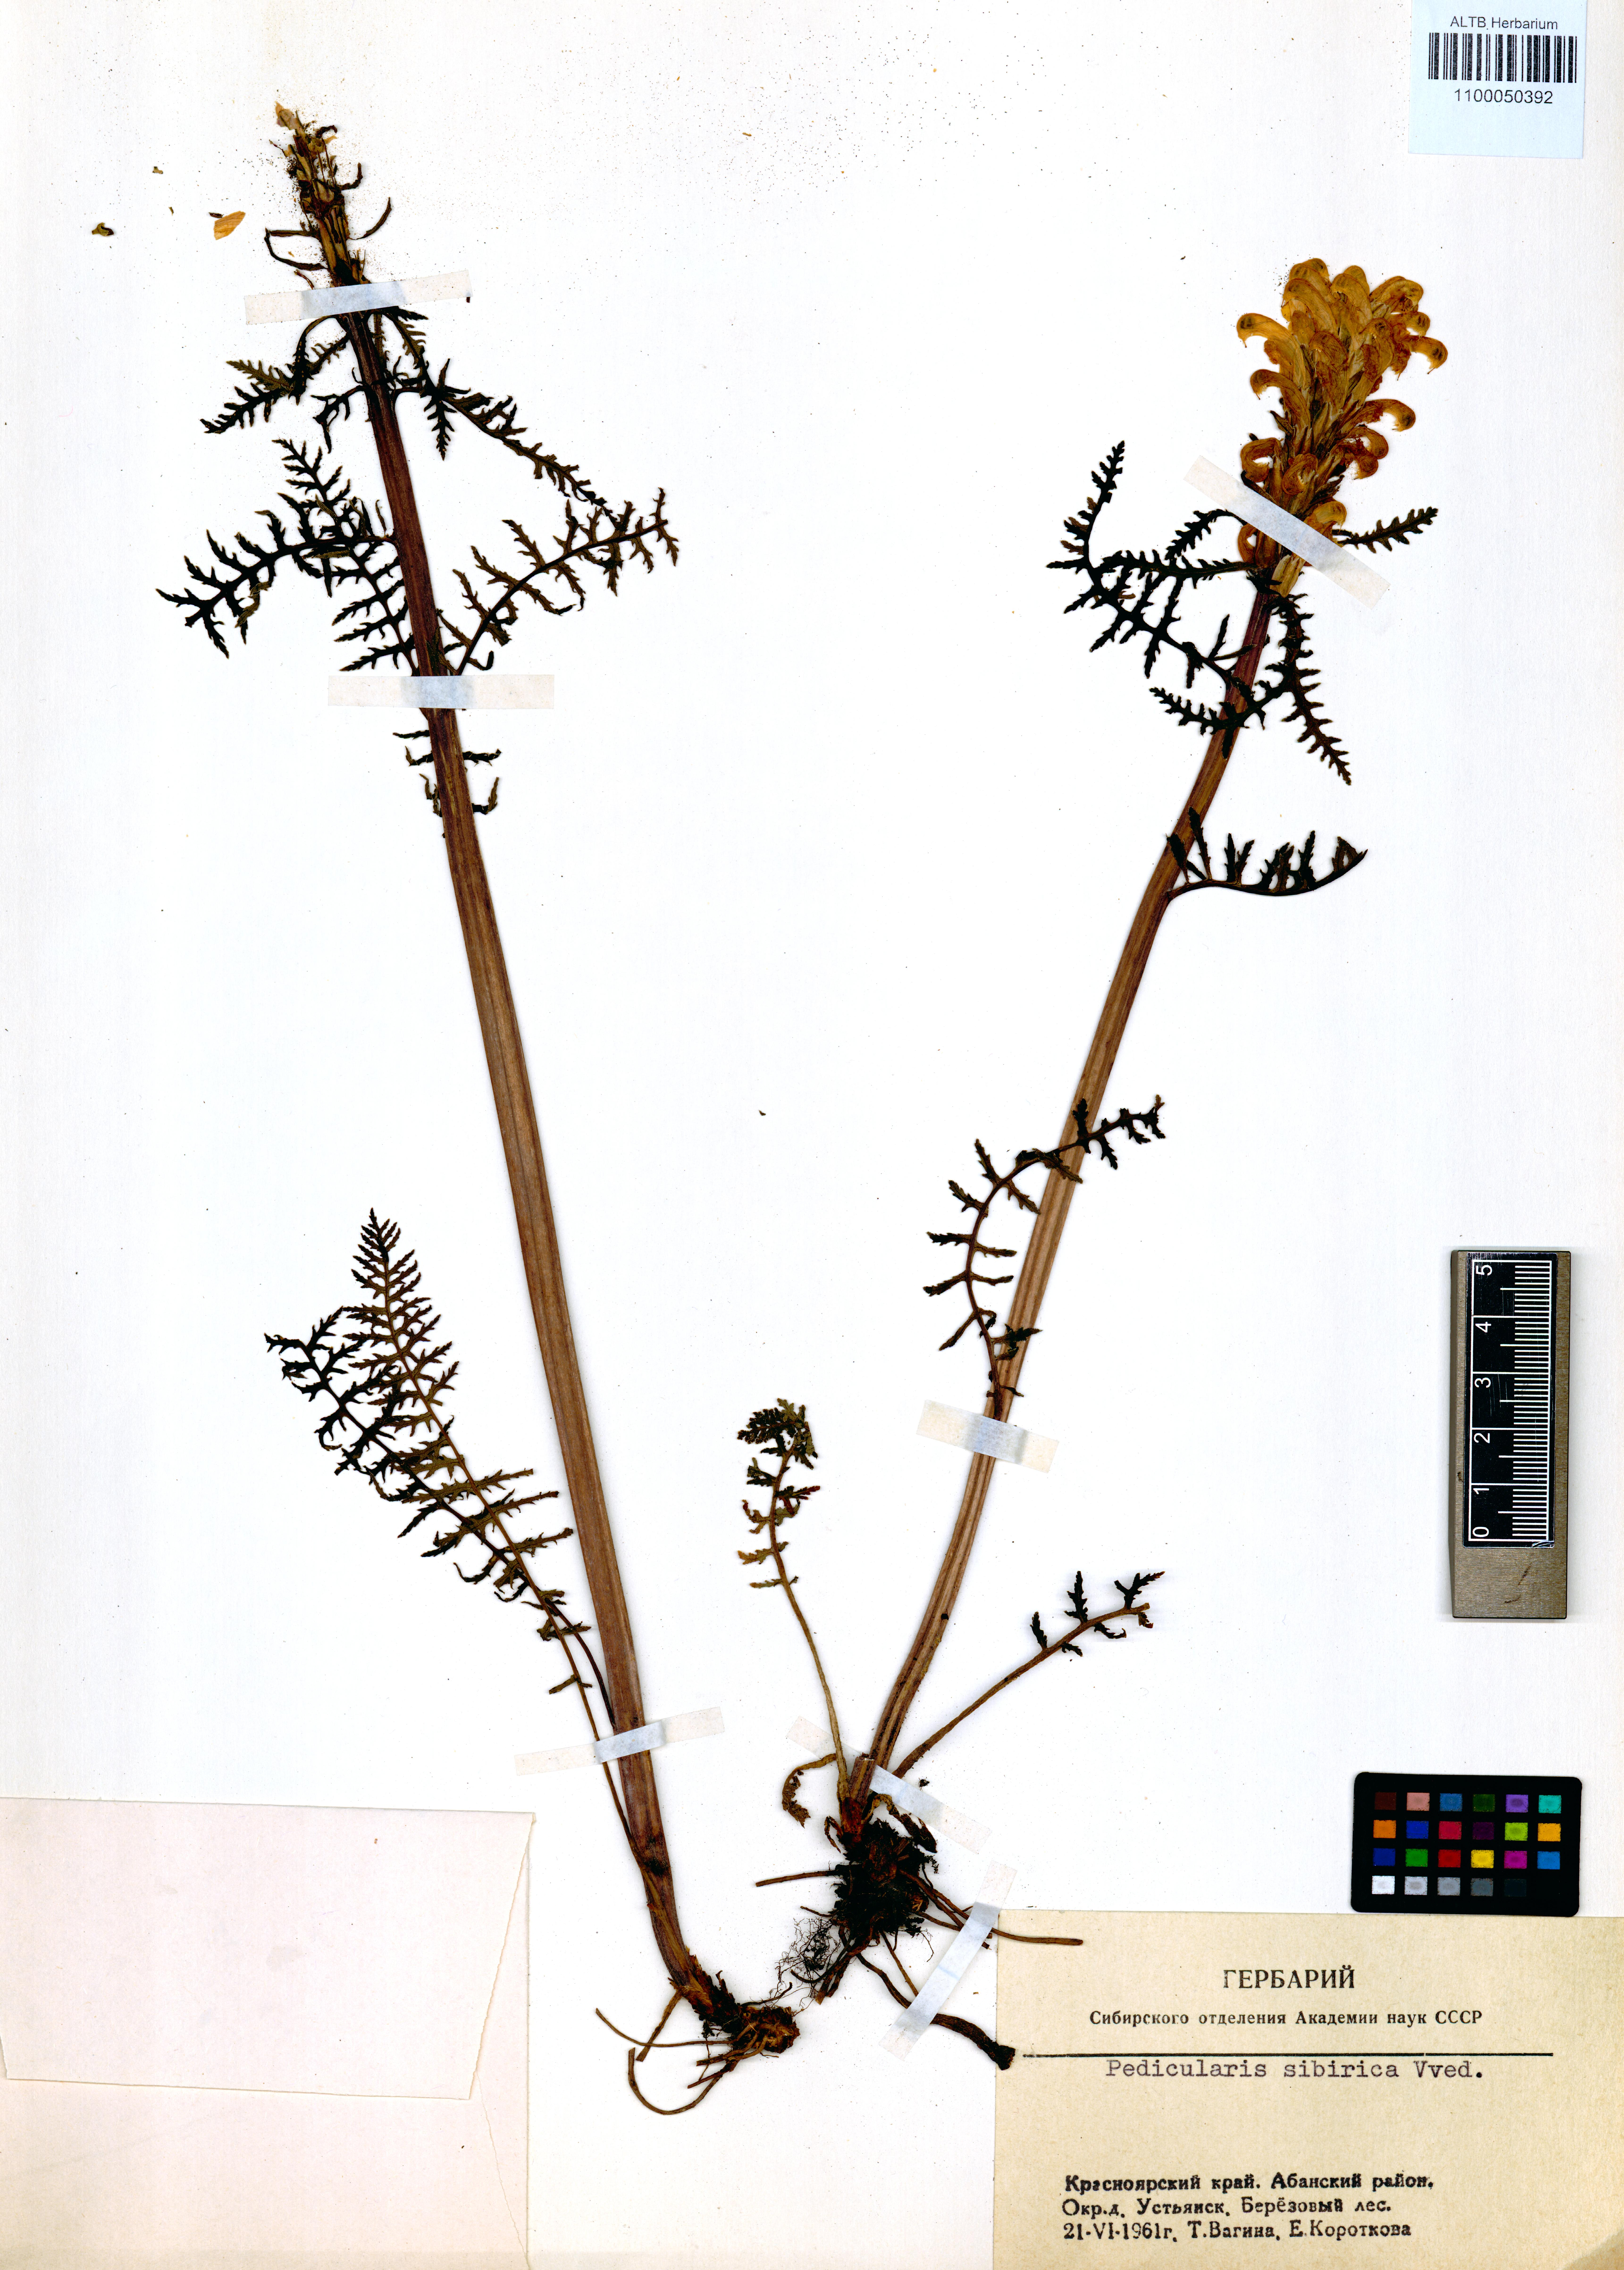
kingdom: Plantae
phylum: Tracheophyta
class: Magnoliopsida
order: Lamiales
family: Orobanchaceae
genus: Pedicularis
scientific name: Pedicularis sibirica
